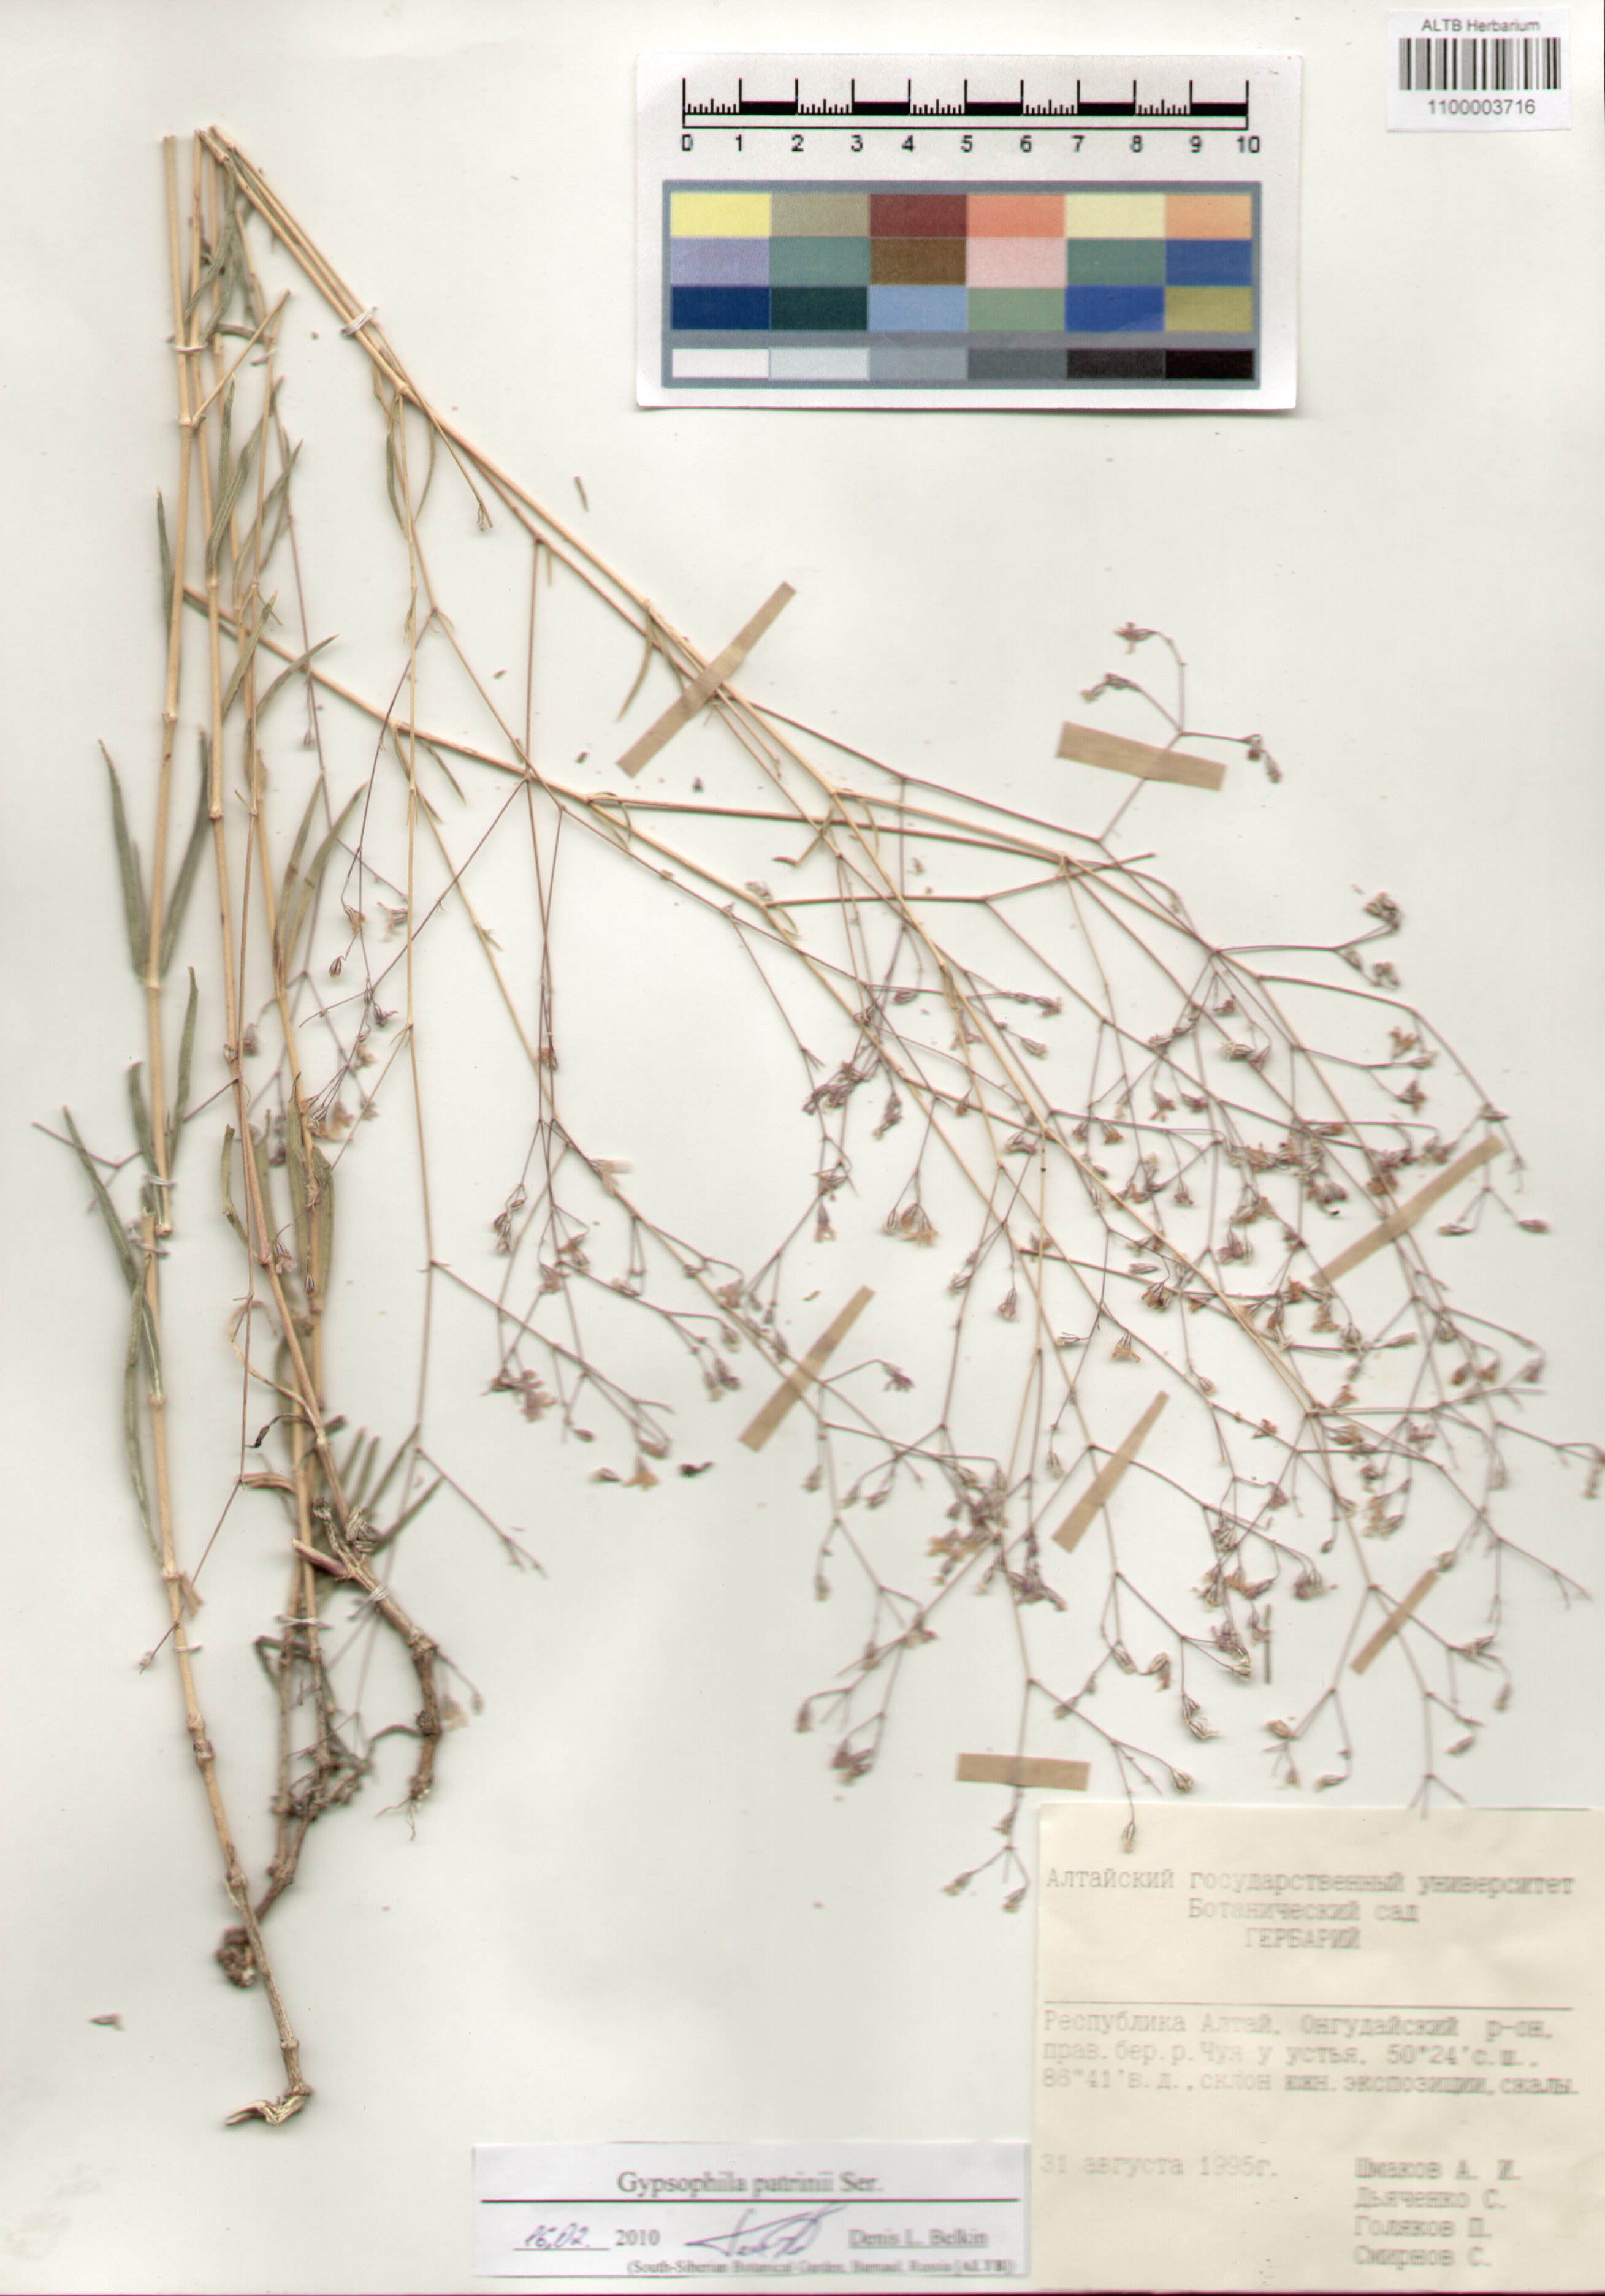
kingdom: Plantae
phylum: Tracheophyta
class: Magnoliopsida
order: Caryophyllales
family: Caryophyllaceae
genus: Gypsophila
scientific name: Gypsophila patrinii
